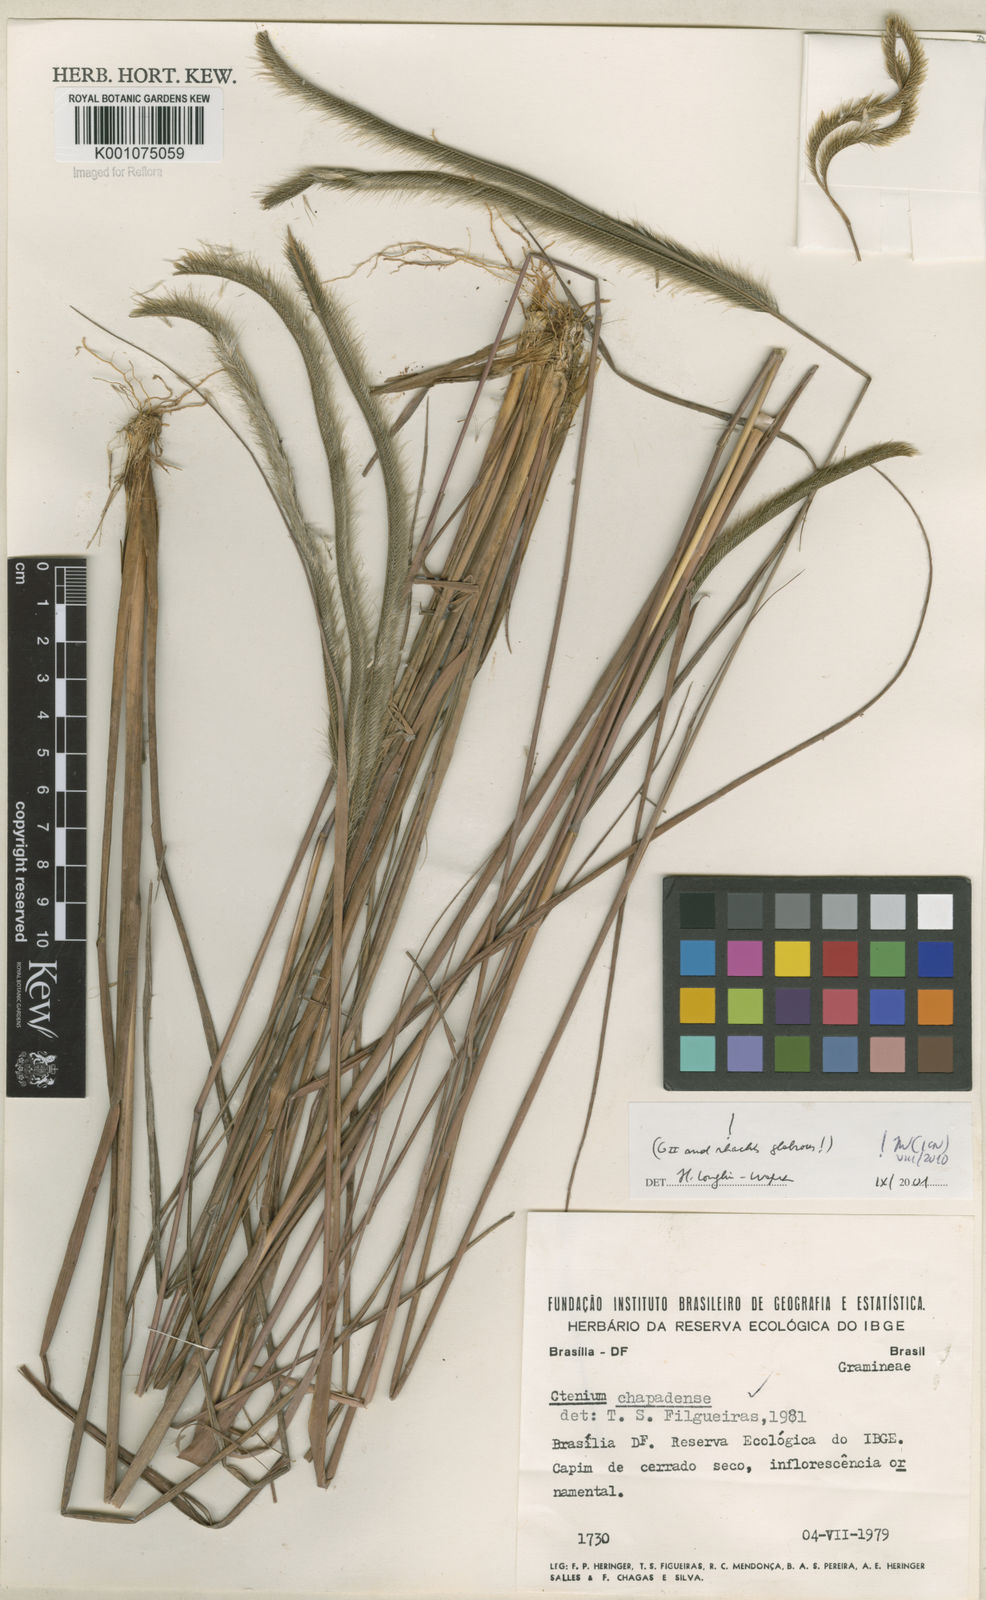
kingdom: Plantae
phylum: Tracheophyta
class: Liliopsida
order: Poales
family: Poaceae
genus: Ctenium
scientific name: Ctenium
